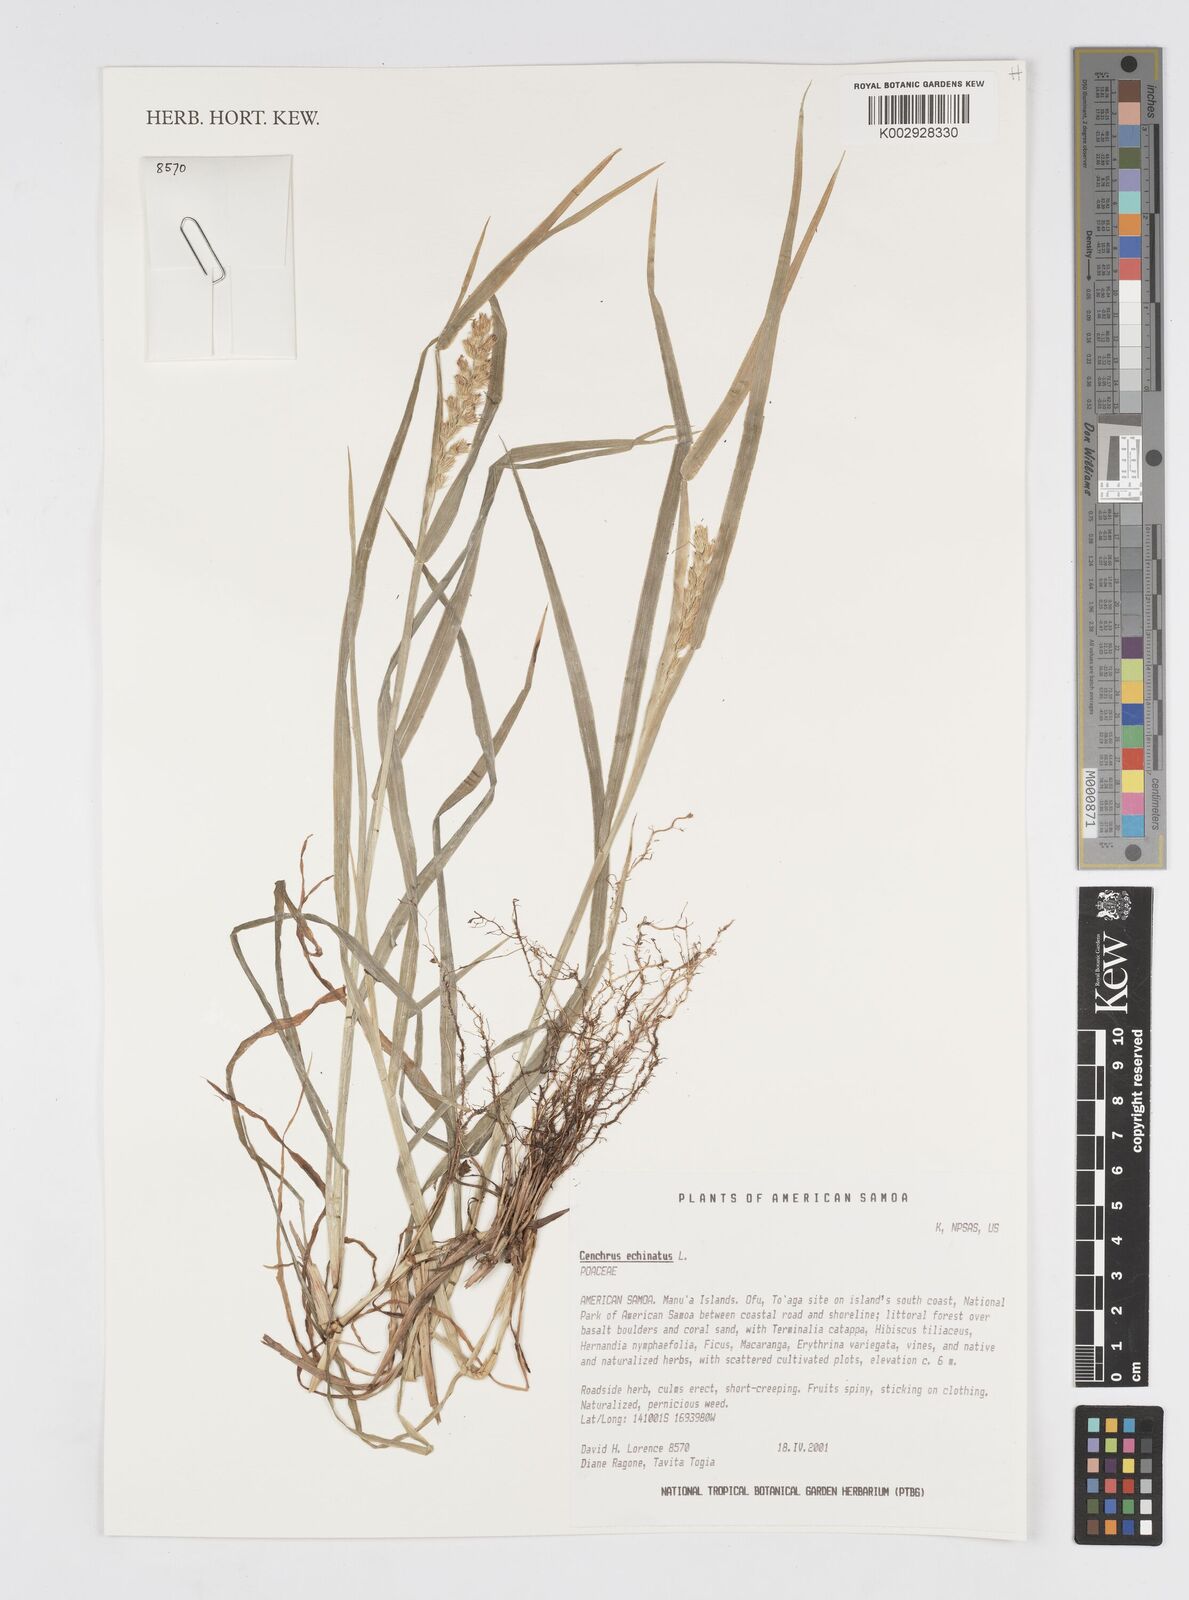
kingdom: Plantae
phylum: Tracheophyta
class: Liliopsida
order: Poales
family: Poaceae
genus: Cenchrus
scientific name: Cenchrus echinatus
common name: Southern sandbur
